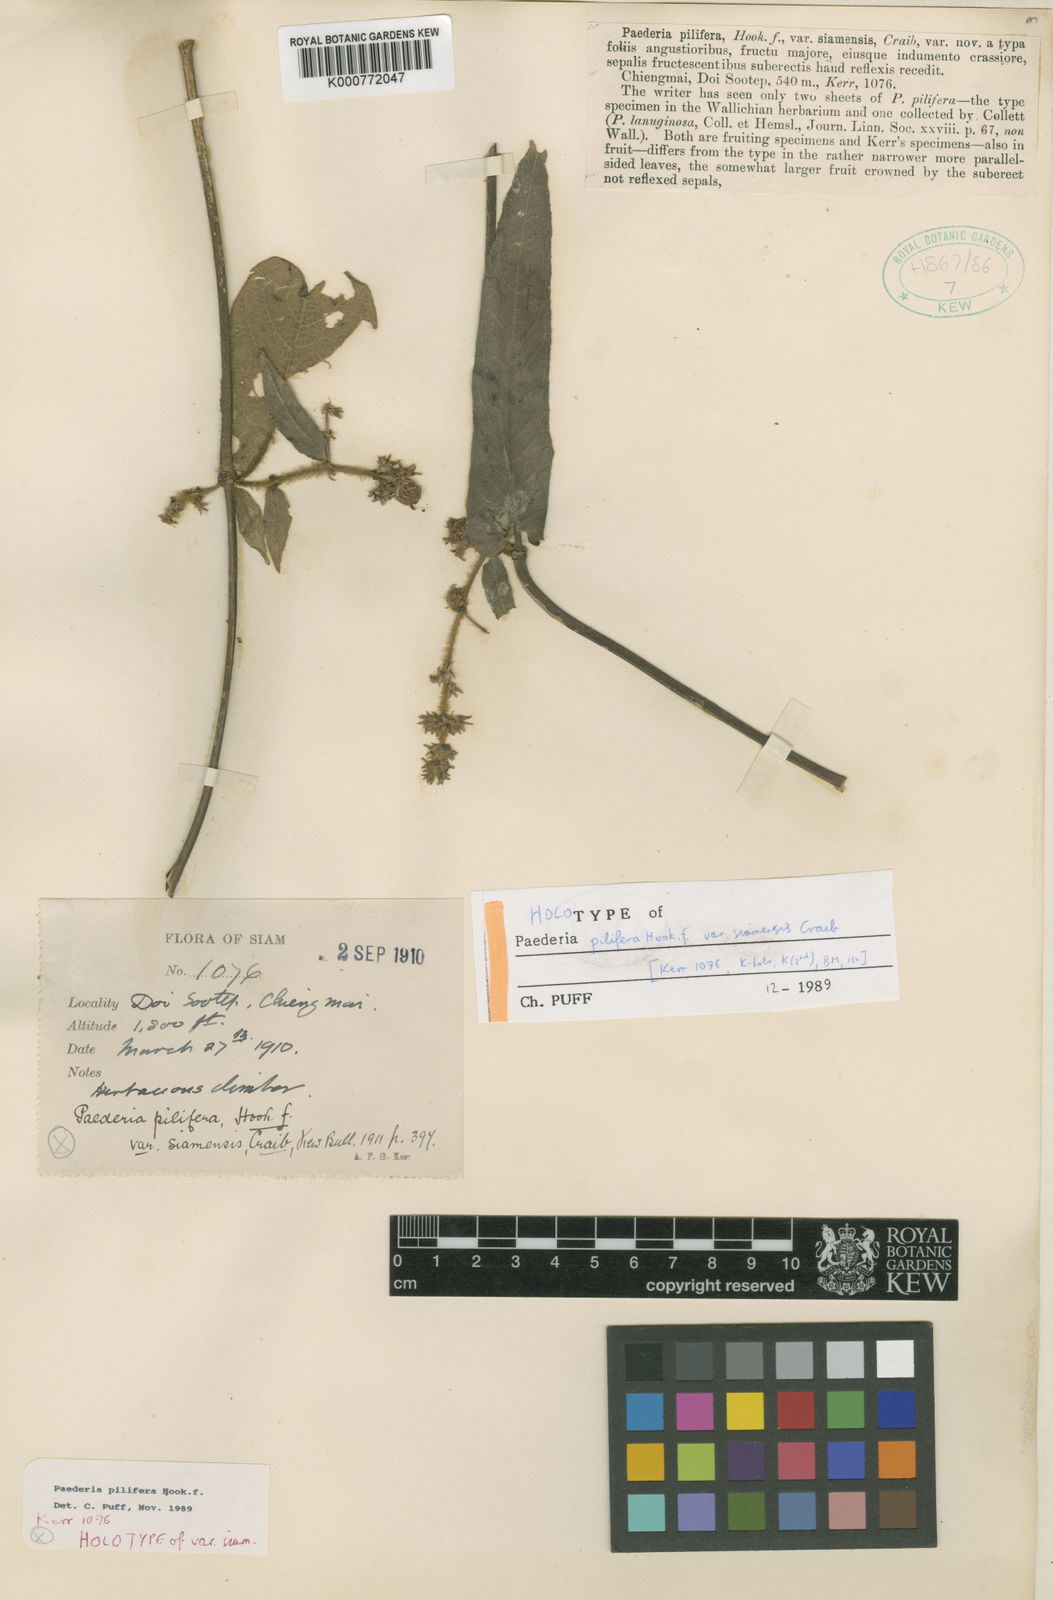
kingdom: Plantae
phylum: Tracheophyta
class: Magnoliopsida
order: Gentianales
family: Rubiaceae
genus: Paederia
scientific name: Paederia pilifera
